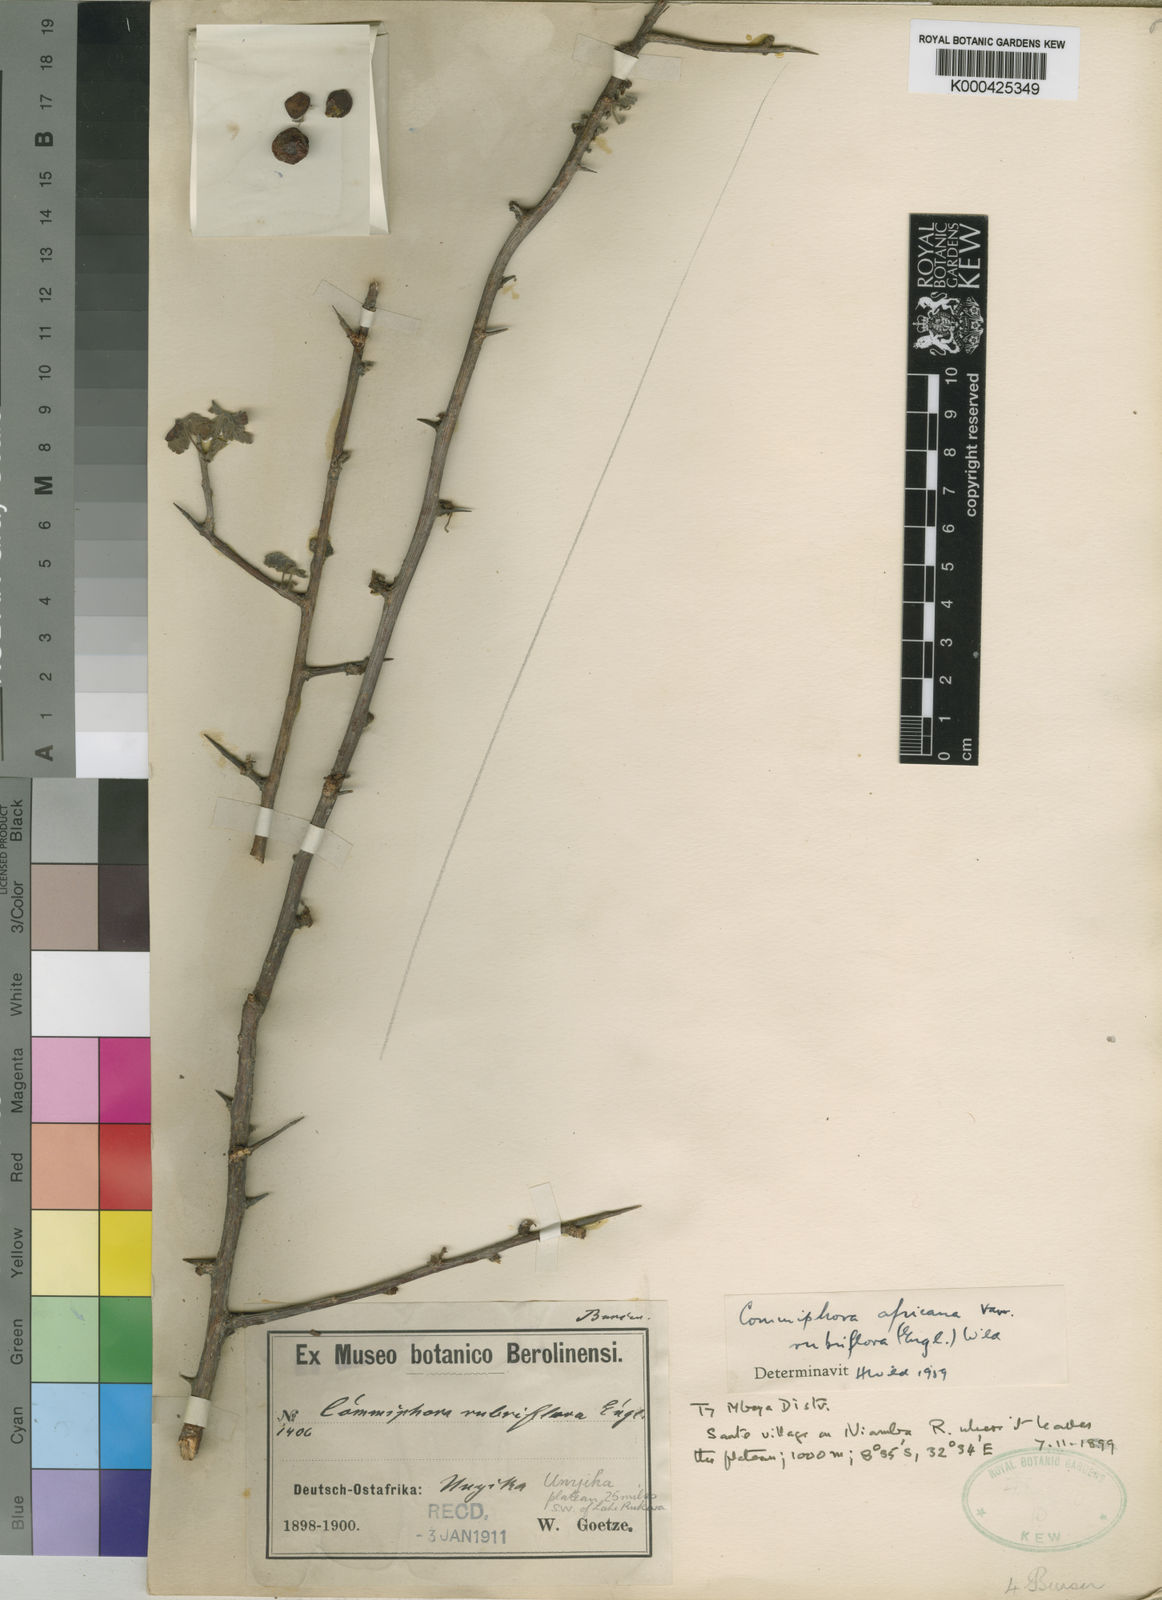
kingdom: Plantae
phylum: Tracheophyta
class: Magnoliopsida
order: Sapindales
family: Burseraceae
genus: Commiphora
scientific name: Commiphora africana
